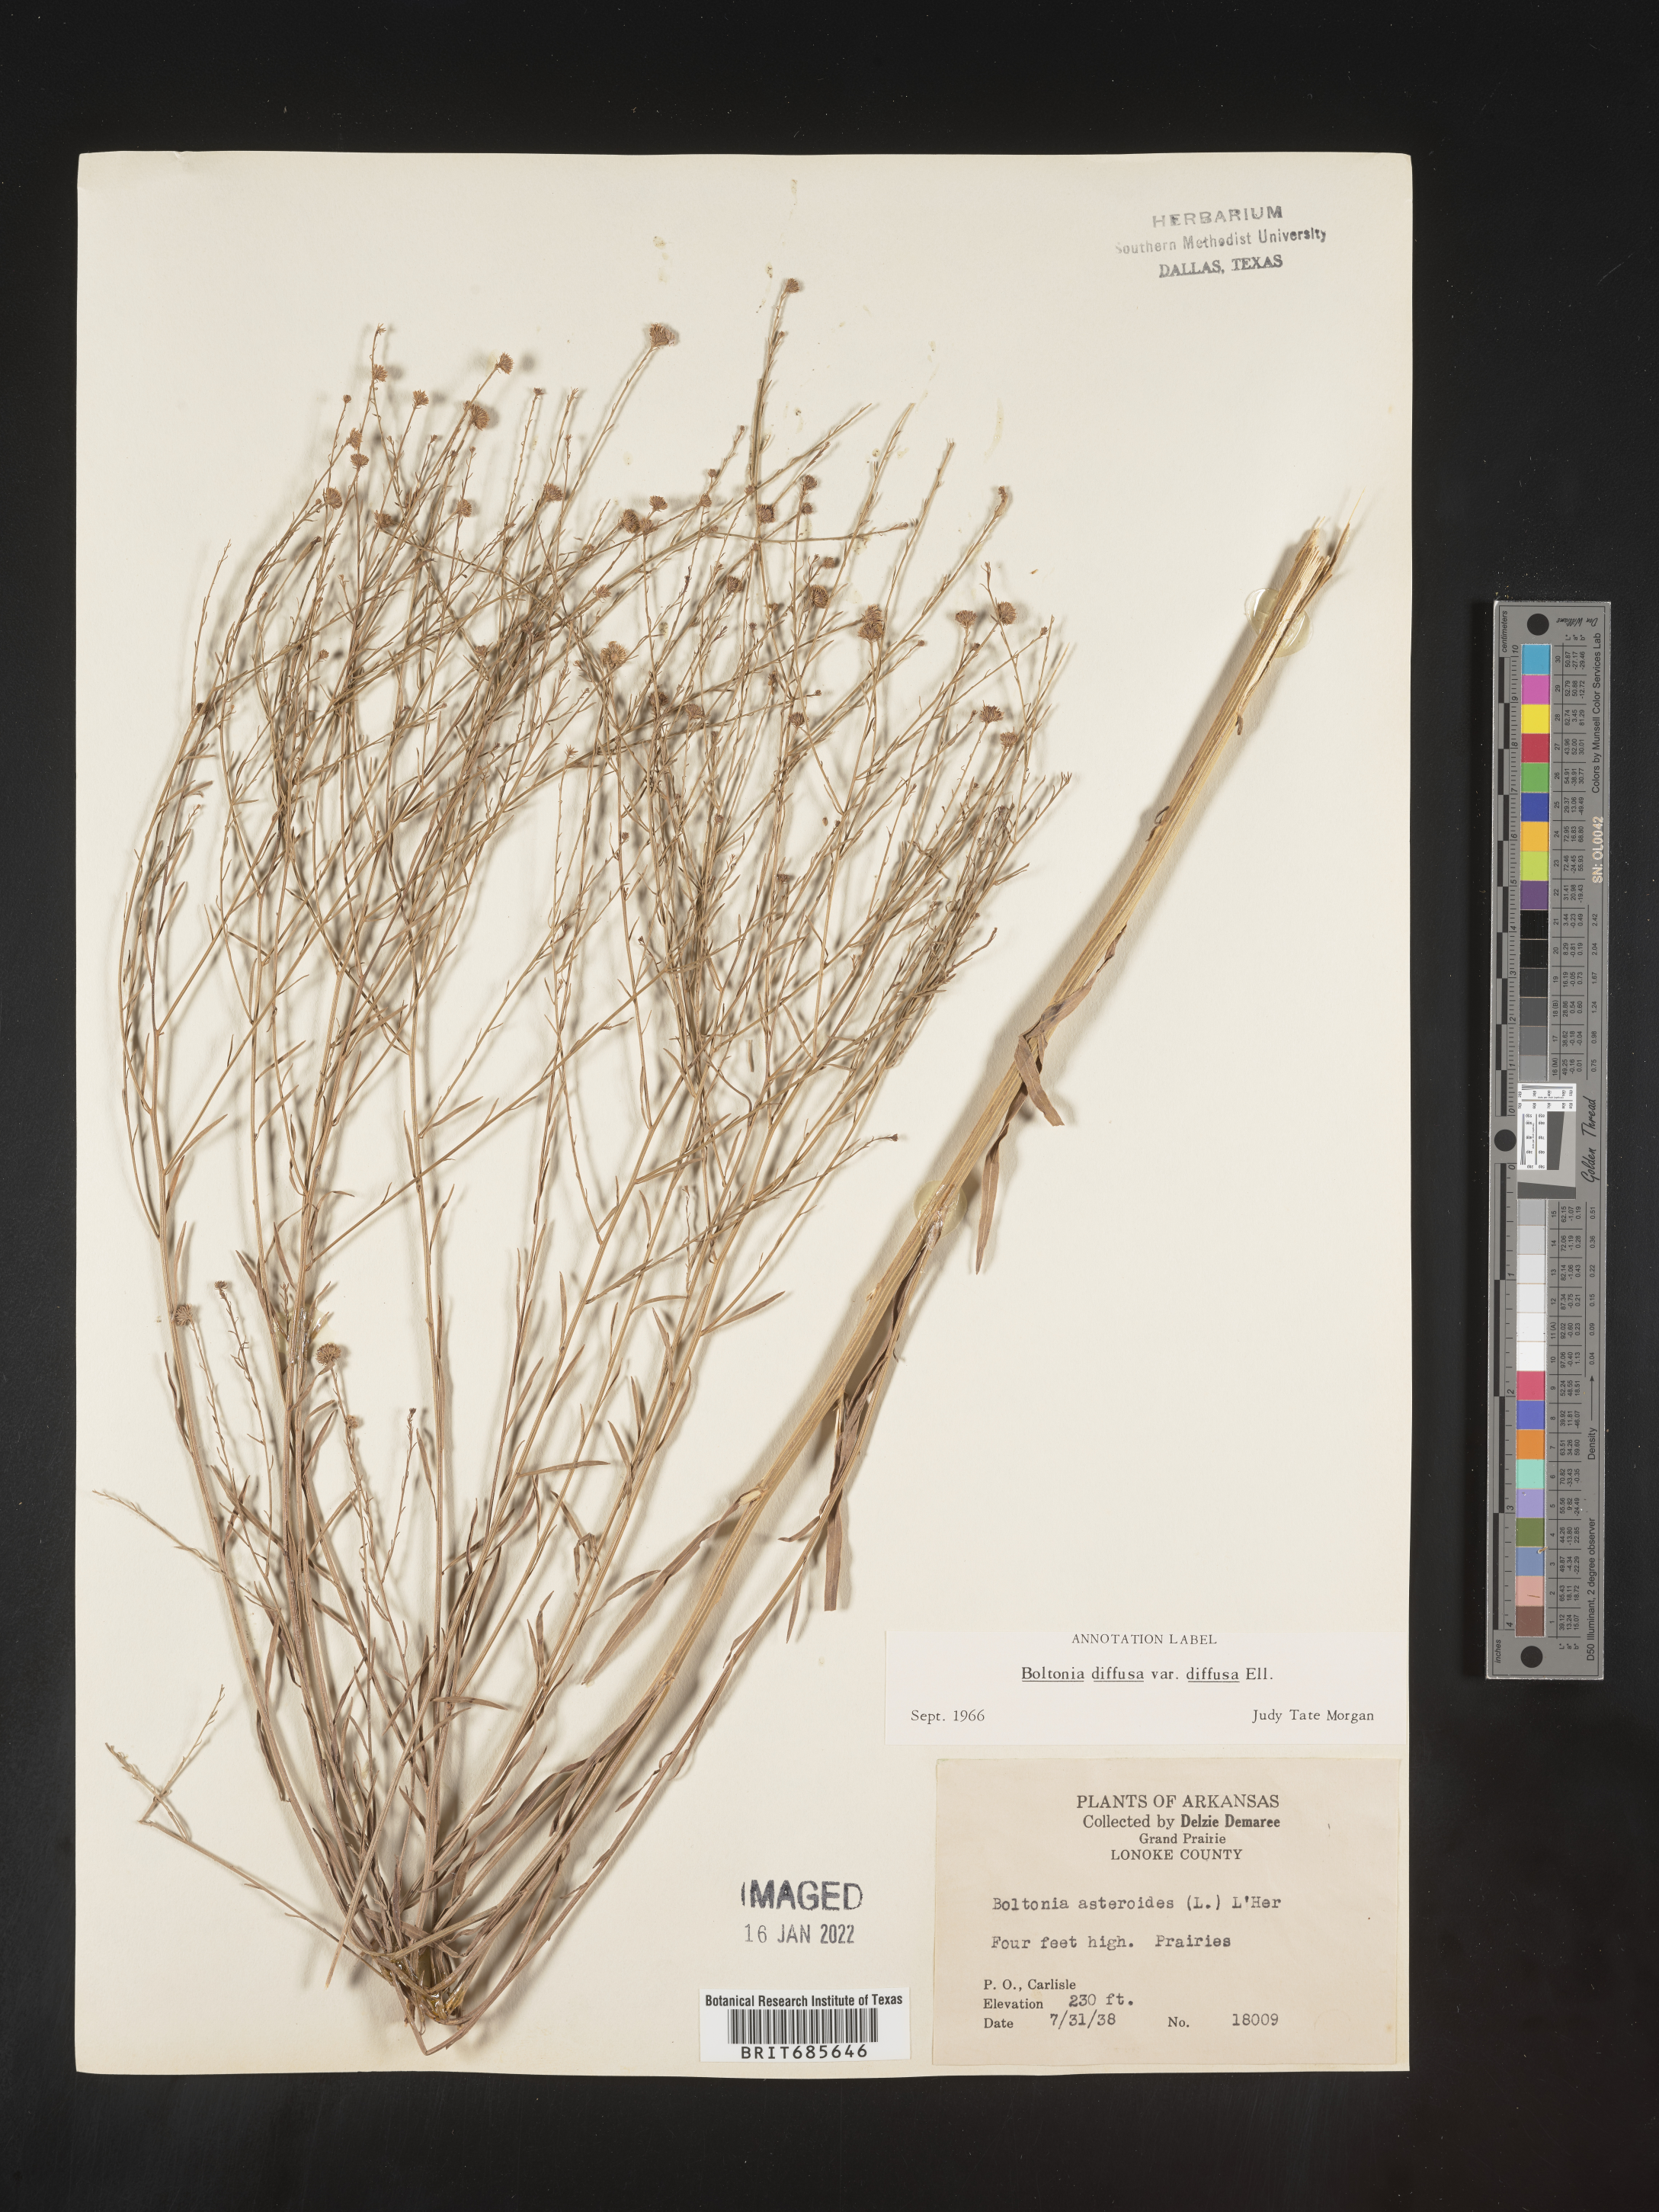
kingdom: Plantae
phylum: Tracheophyta
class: Magnoliopsida
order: Asterales
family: Asteraceae
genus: Boltonia
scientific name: Boltonia diffusa
